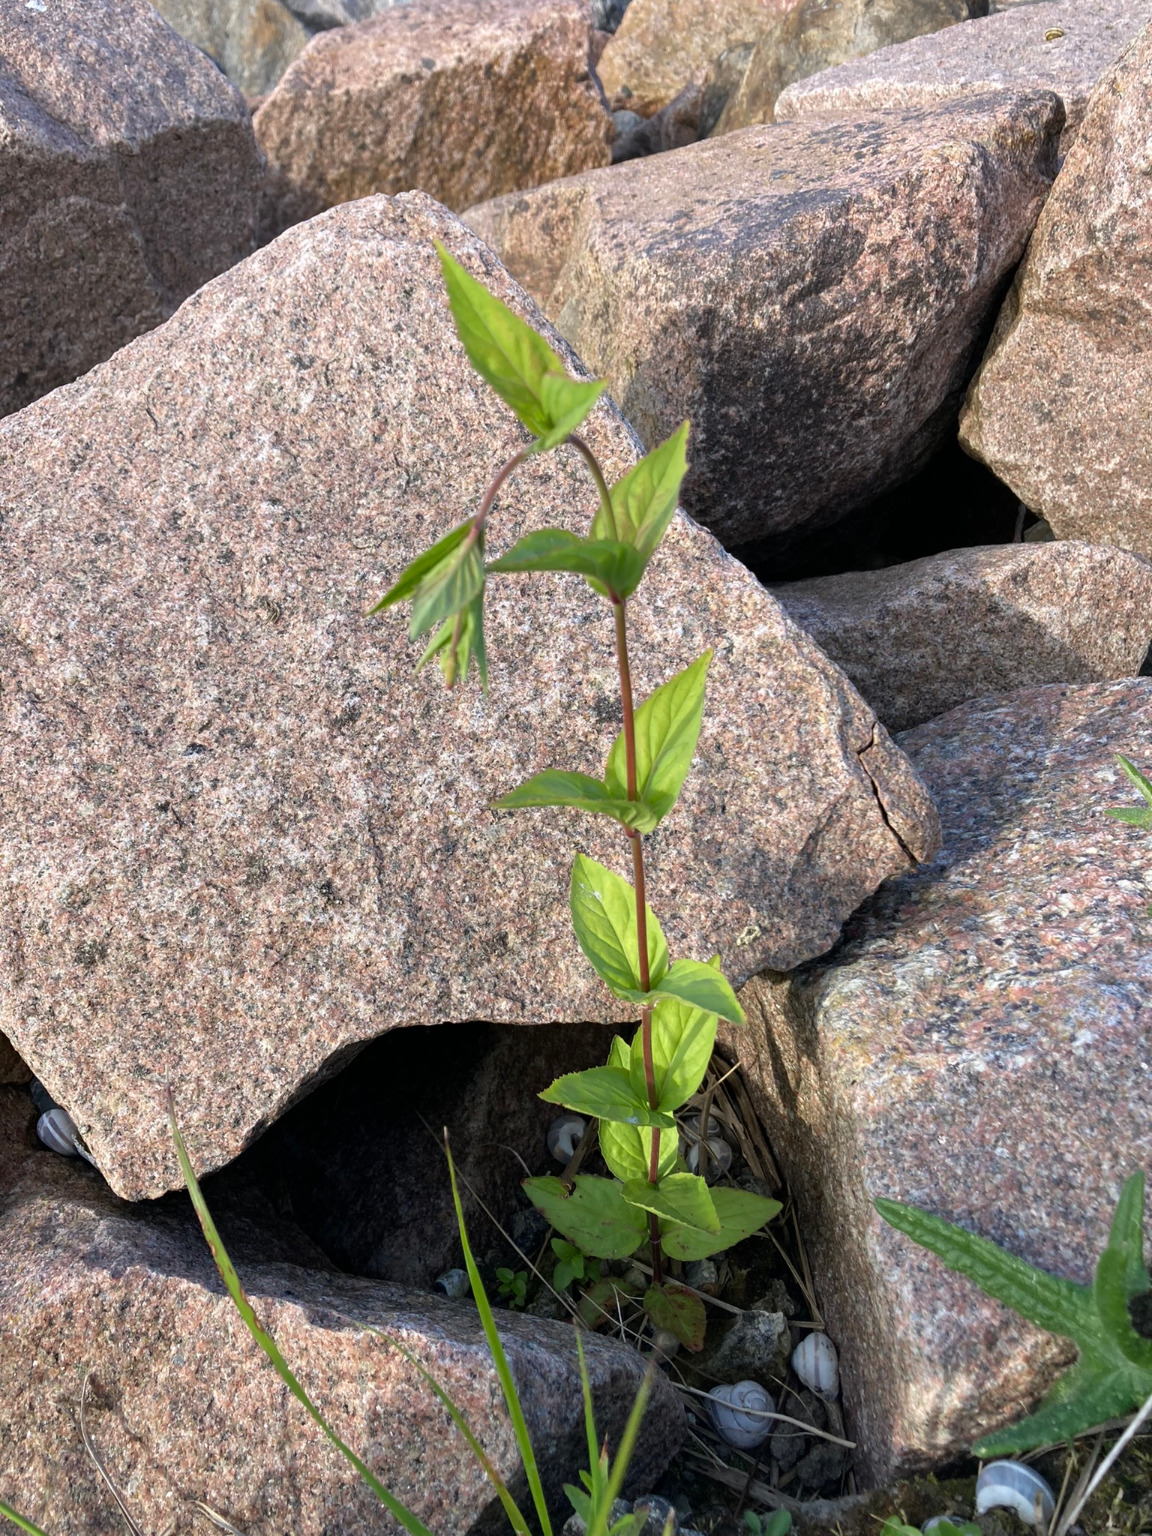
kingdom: Plantae
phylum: Tracheophyta
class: Magnoliopsida
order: Myrtales
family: Onagraceae
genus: Epilobium
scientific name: Epilobium montanum
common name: Glat dueurt
